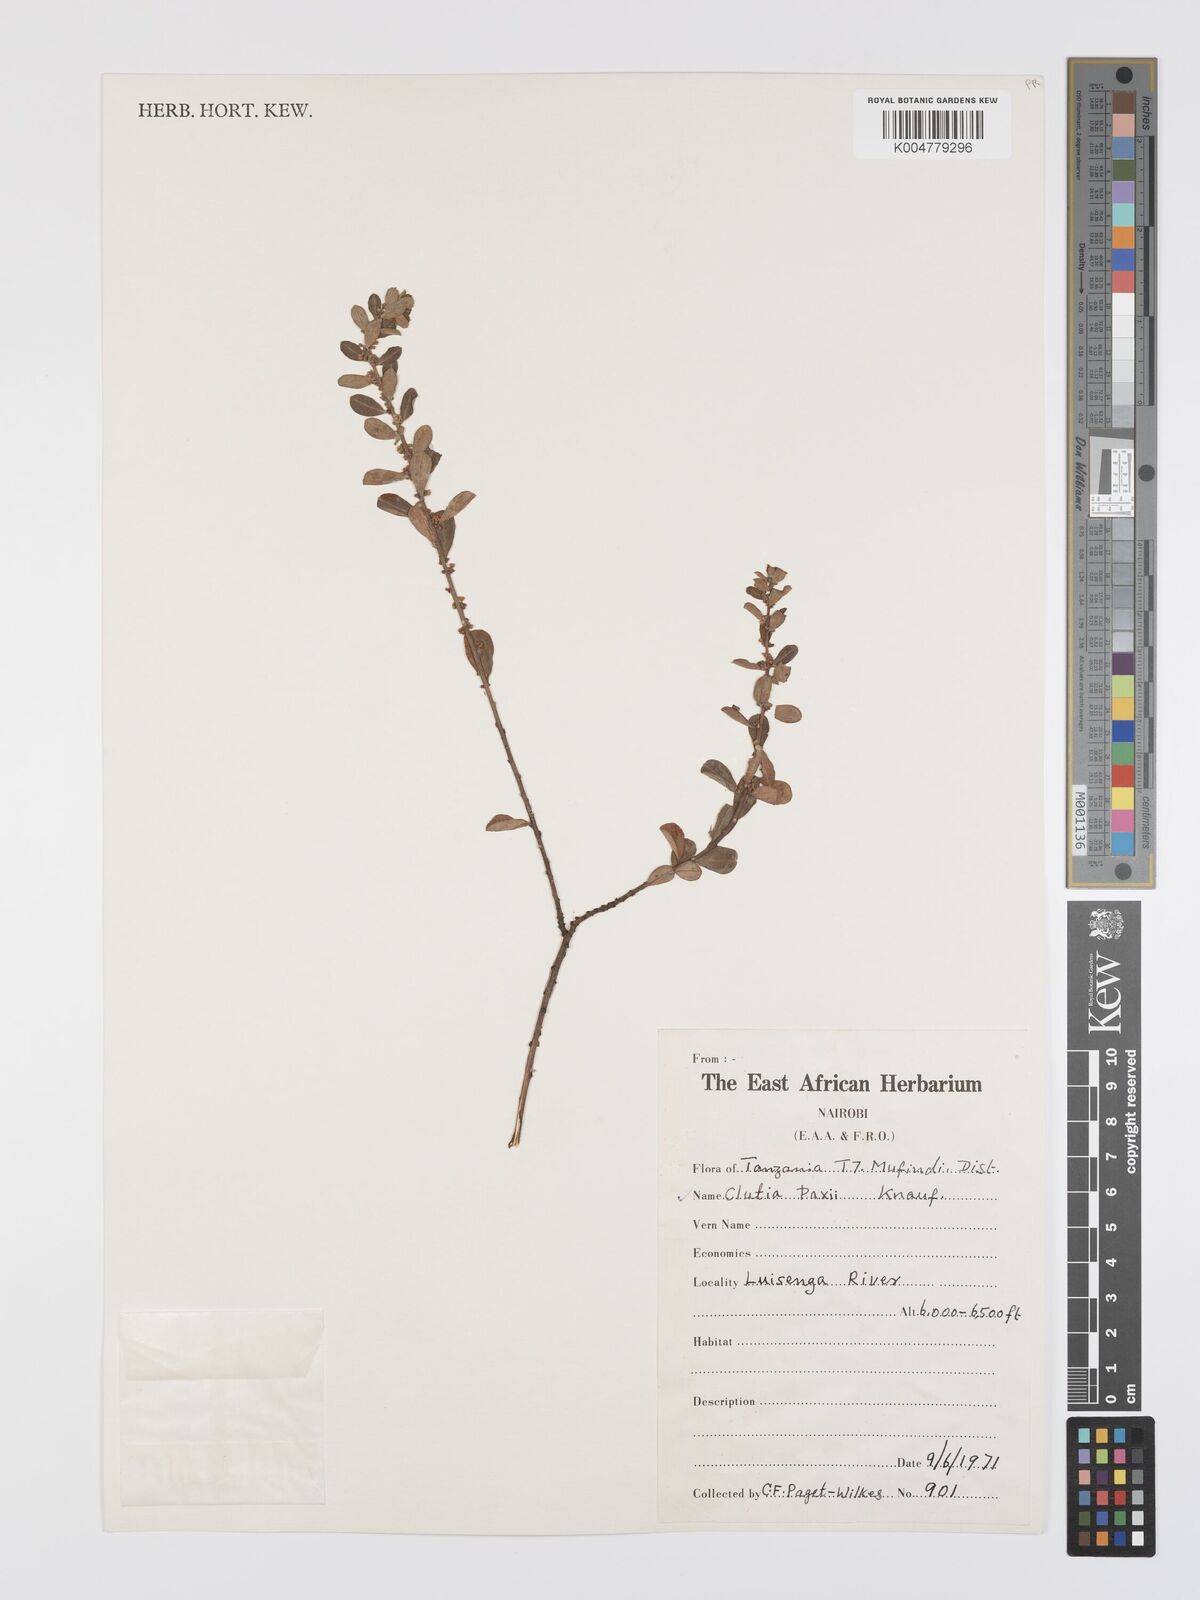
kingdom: Plantae
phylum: Tracheophyta
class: Magnoliopsida
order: Malpighiales
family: Peraceae
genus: Clutia
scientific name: Clutia paxii
